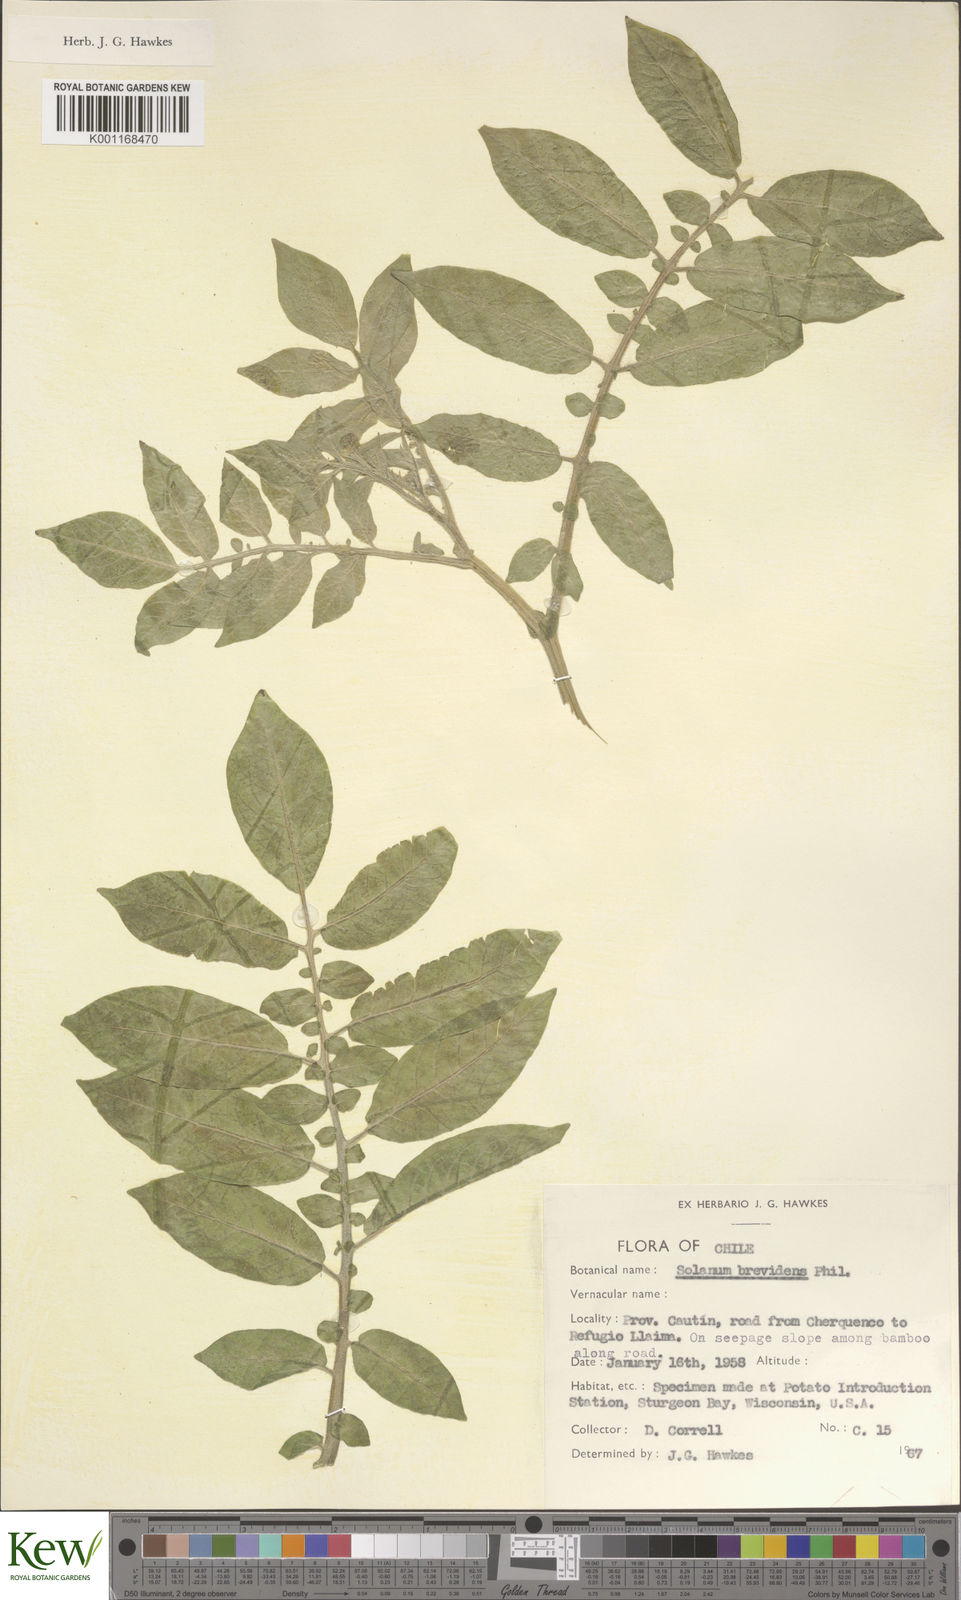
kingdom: Plantae
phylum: Tracheophyta
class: Magnoliopsida
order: Solanales
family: Solanaceae
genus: Solanum
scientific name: Solanum palustre
